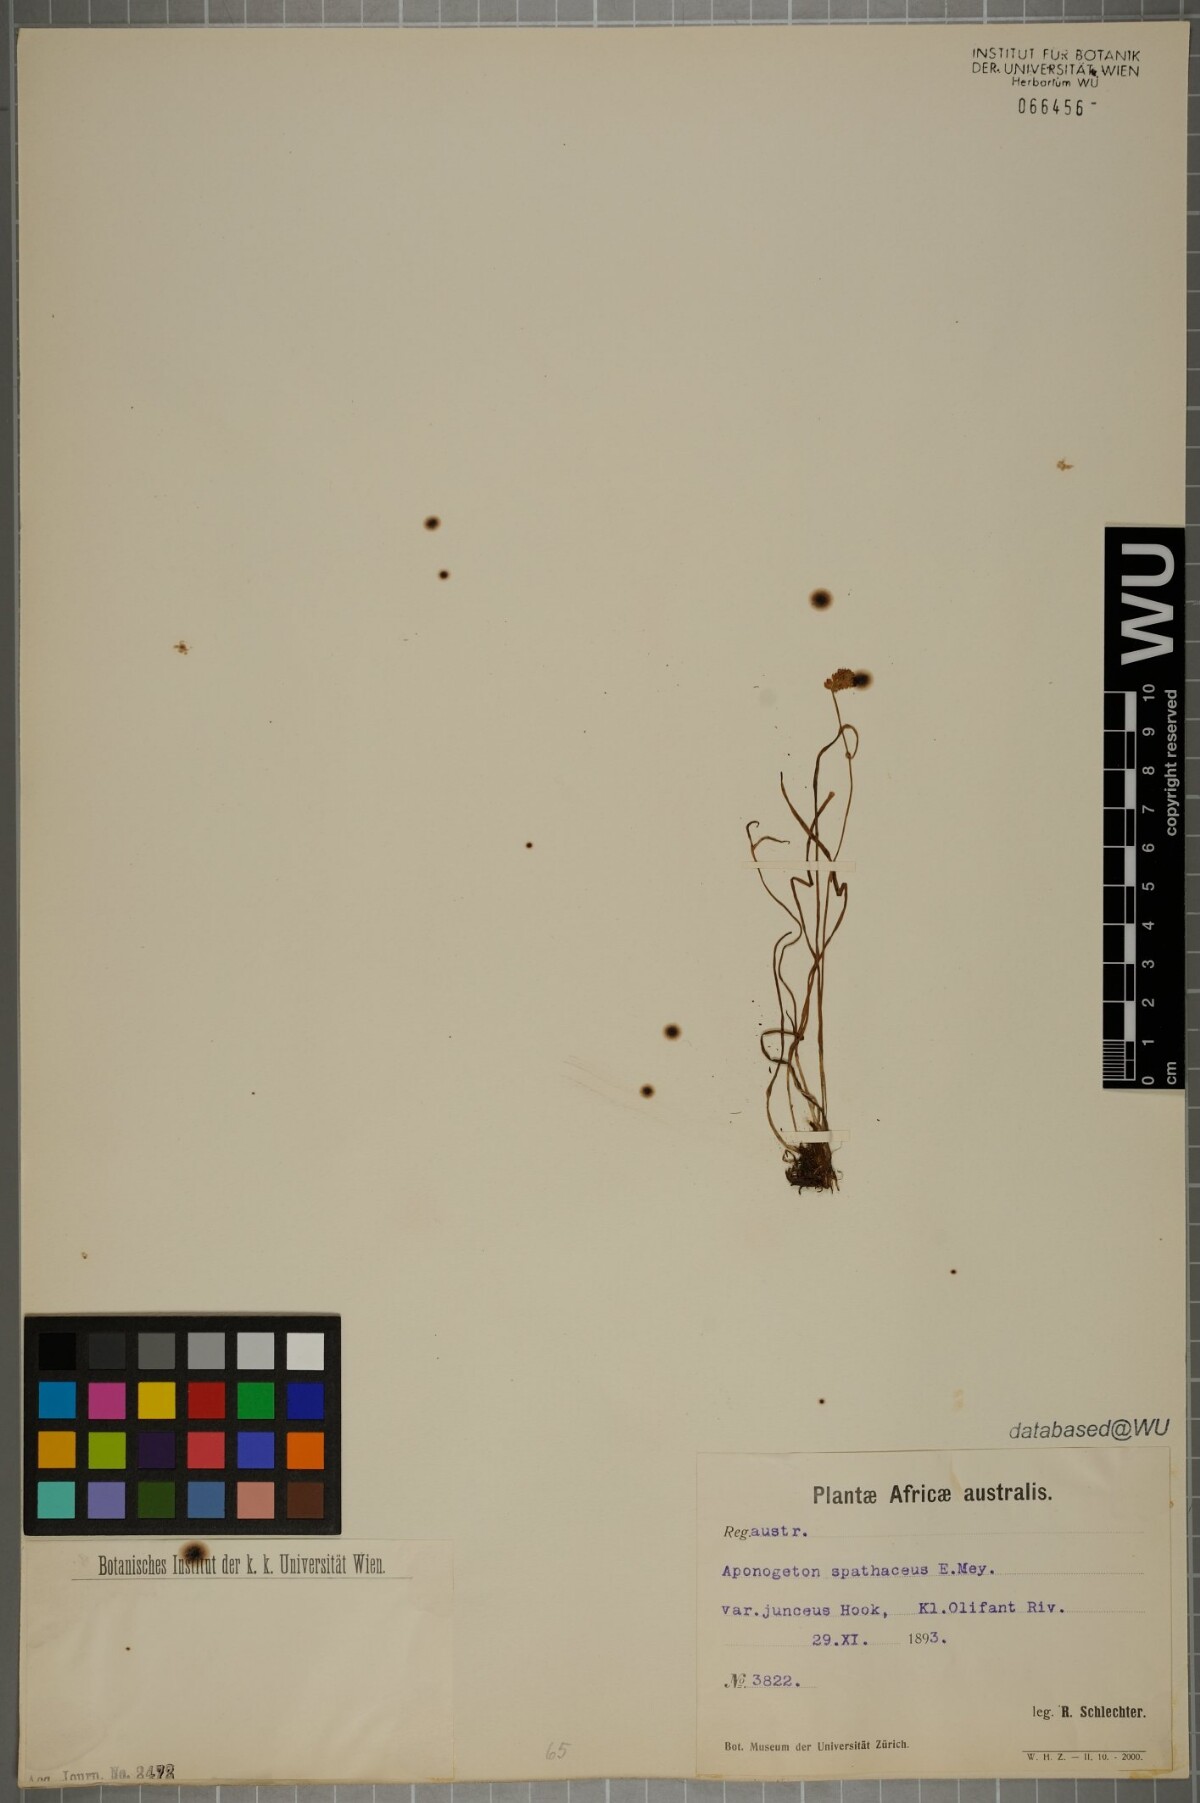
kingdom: Plantae
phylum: Tracheophyta
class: Liliopsida
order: Alismatales
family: Aponogetonaceae
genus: Aponogeton
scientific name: Aponogeton junceus
